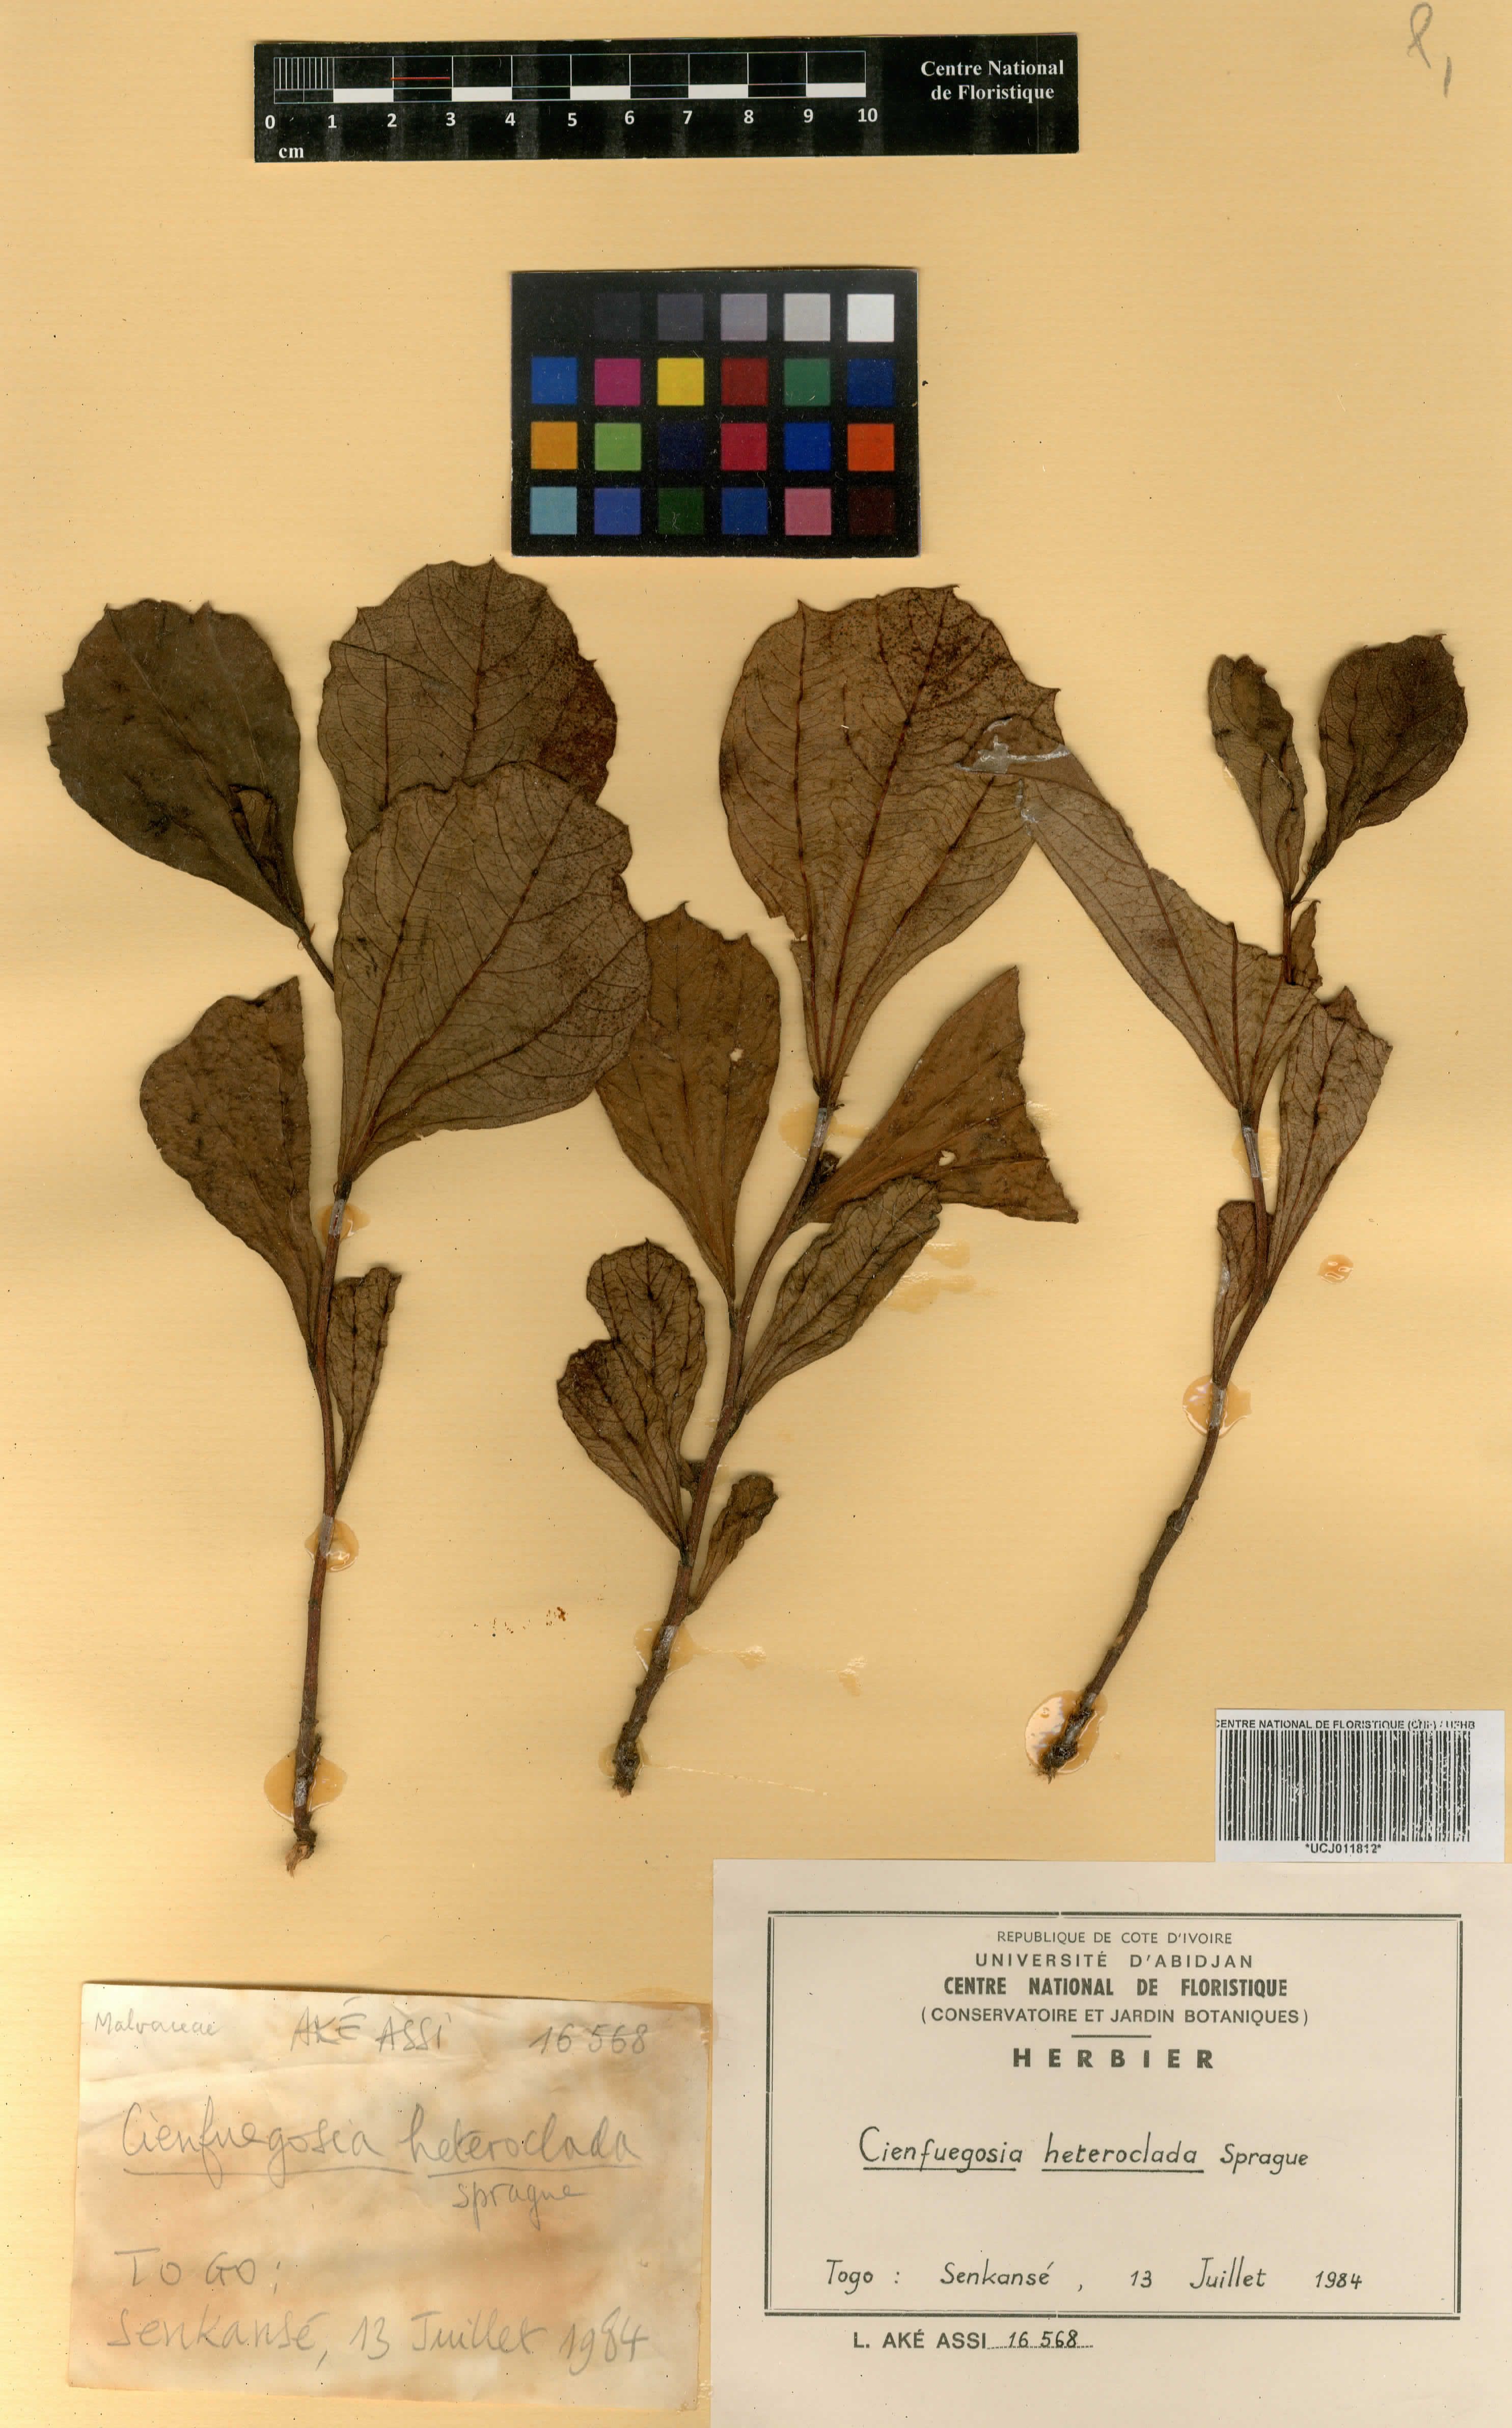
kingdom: Plantae
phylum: Tracheophyta
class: Magnoliopsida
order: Malvales
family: Malvaceae
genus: Cienfuegosia
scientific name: Cienfuegosia heteroclada
